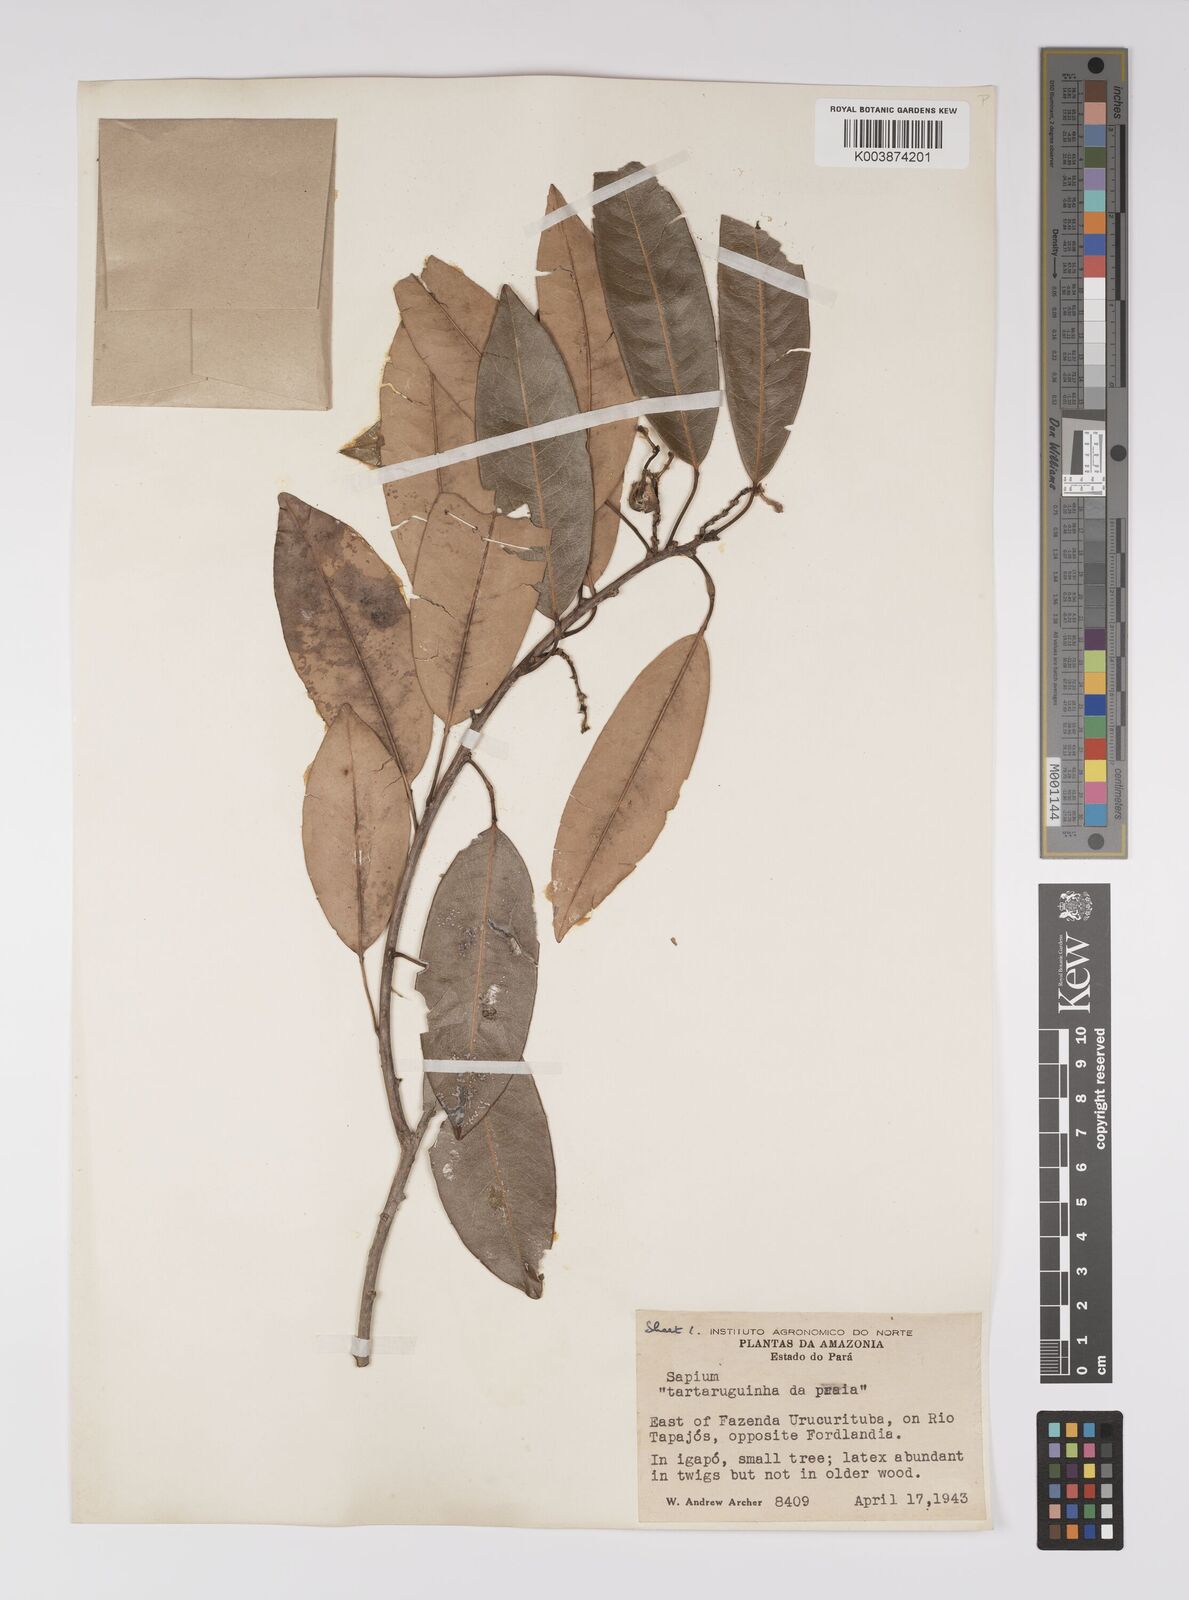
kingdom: Plantae
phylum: Tracheophyta
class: Magnoliopsida
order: Malpighiales
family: Euphorbiaceae
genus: Sapium
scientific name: Sapium
